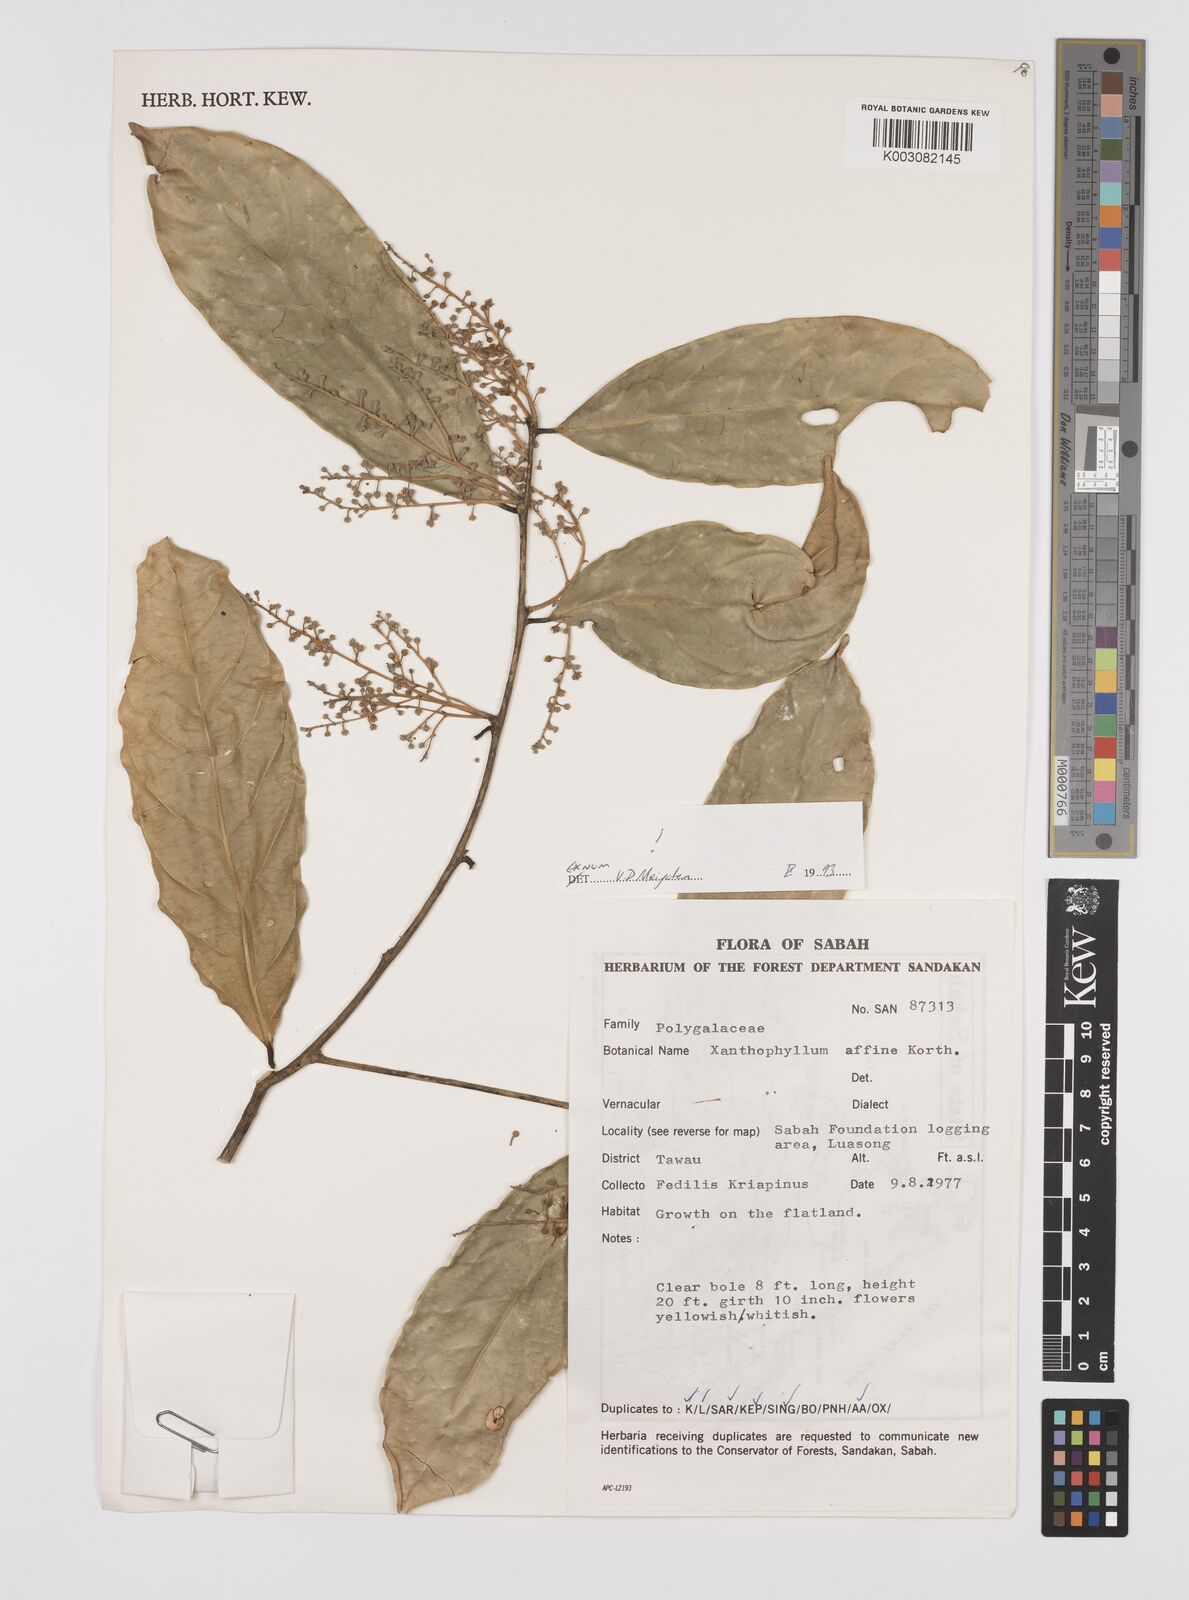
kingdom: Plantae
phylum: Tracheophyta
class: Magnoliopsida
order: Fabales
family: Polygalaceae
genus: Xanthophyllum
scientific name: Xanthophyllum flavescens
